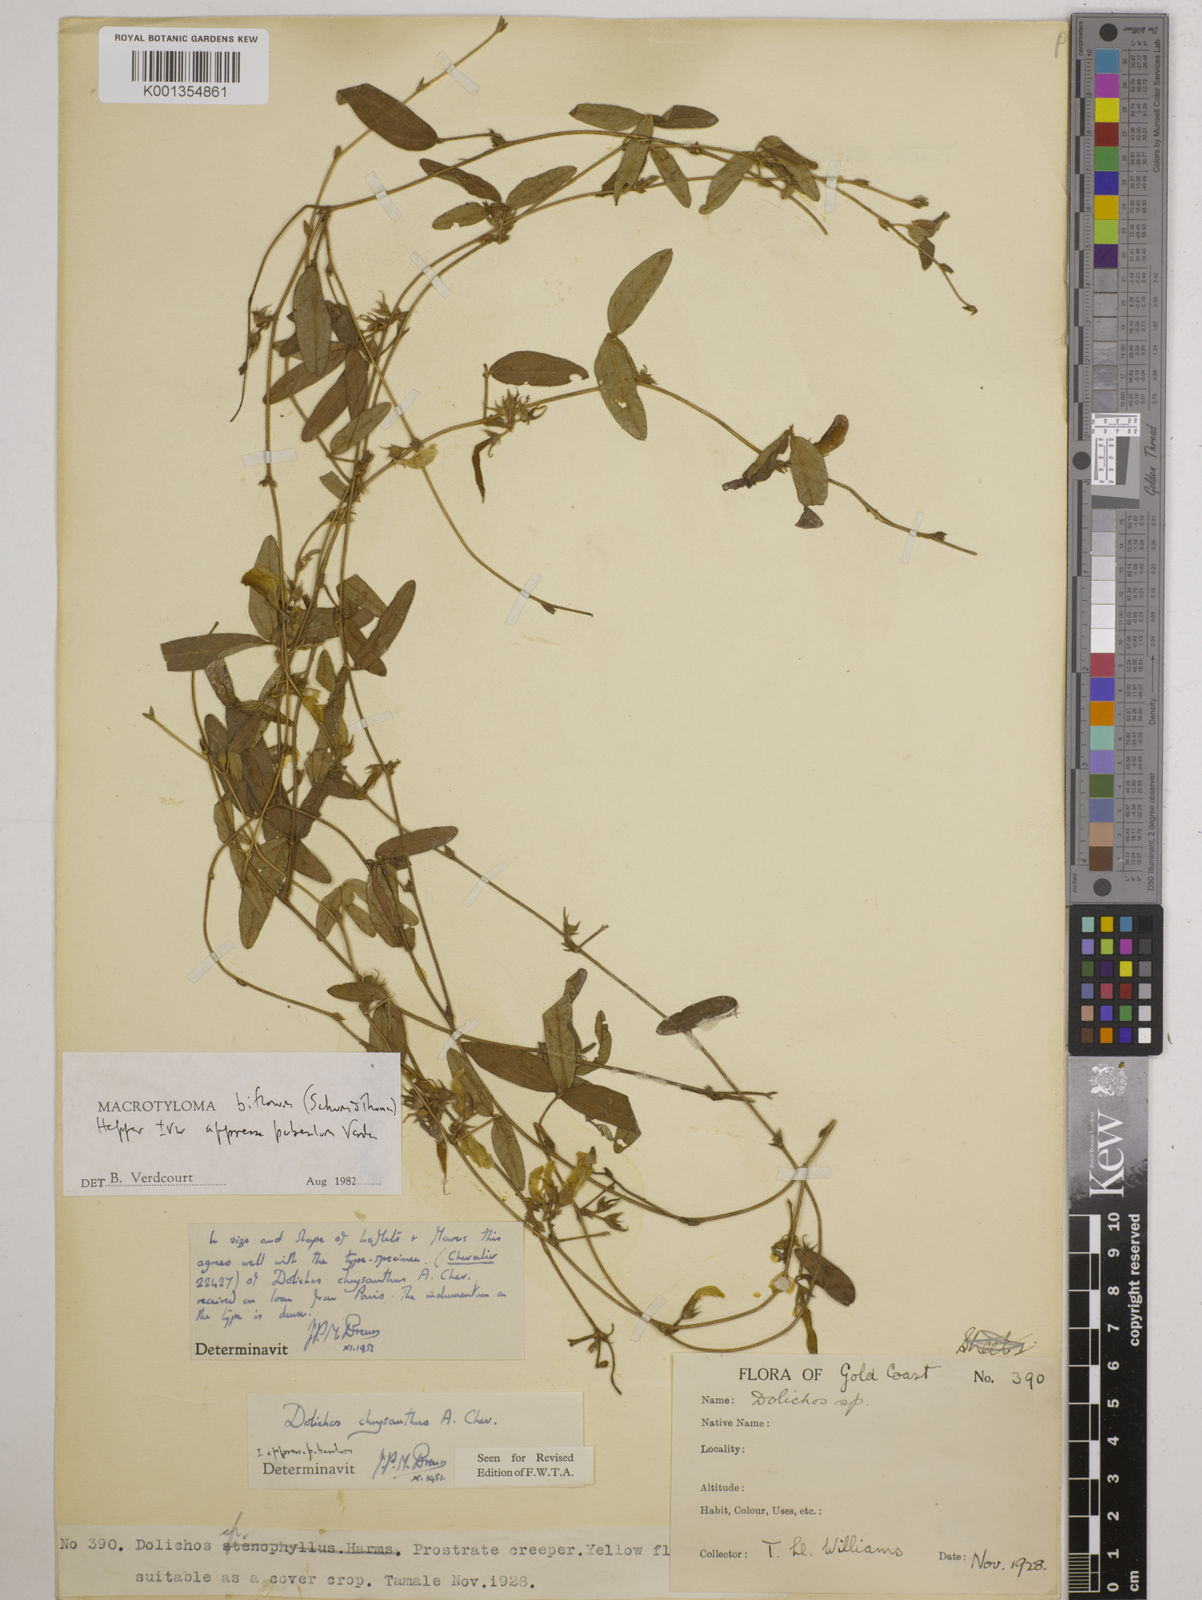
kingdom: Plantae
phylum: Tracheophyta
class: Magnoliopsida
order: Fabales
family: Fabaceae
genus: Macrotyloma
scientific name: Macrotyloma biflorum
